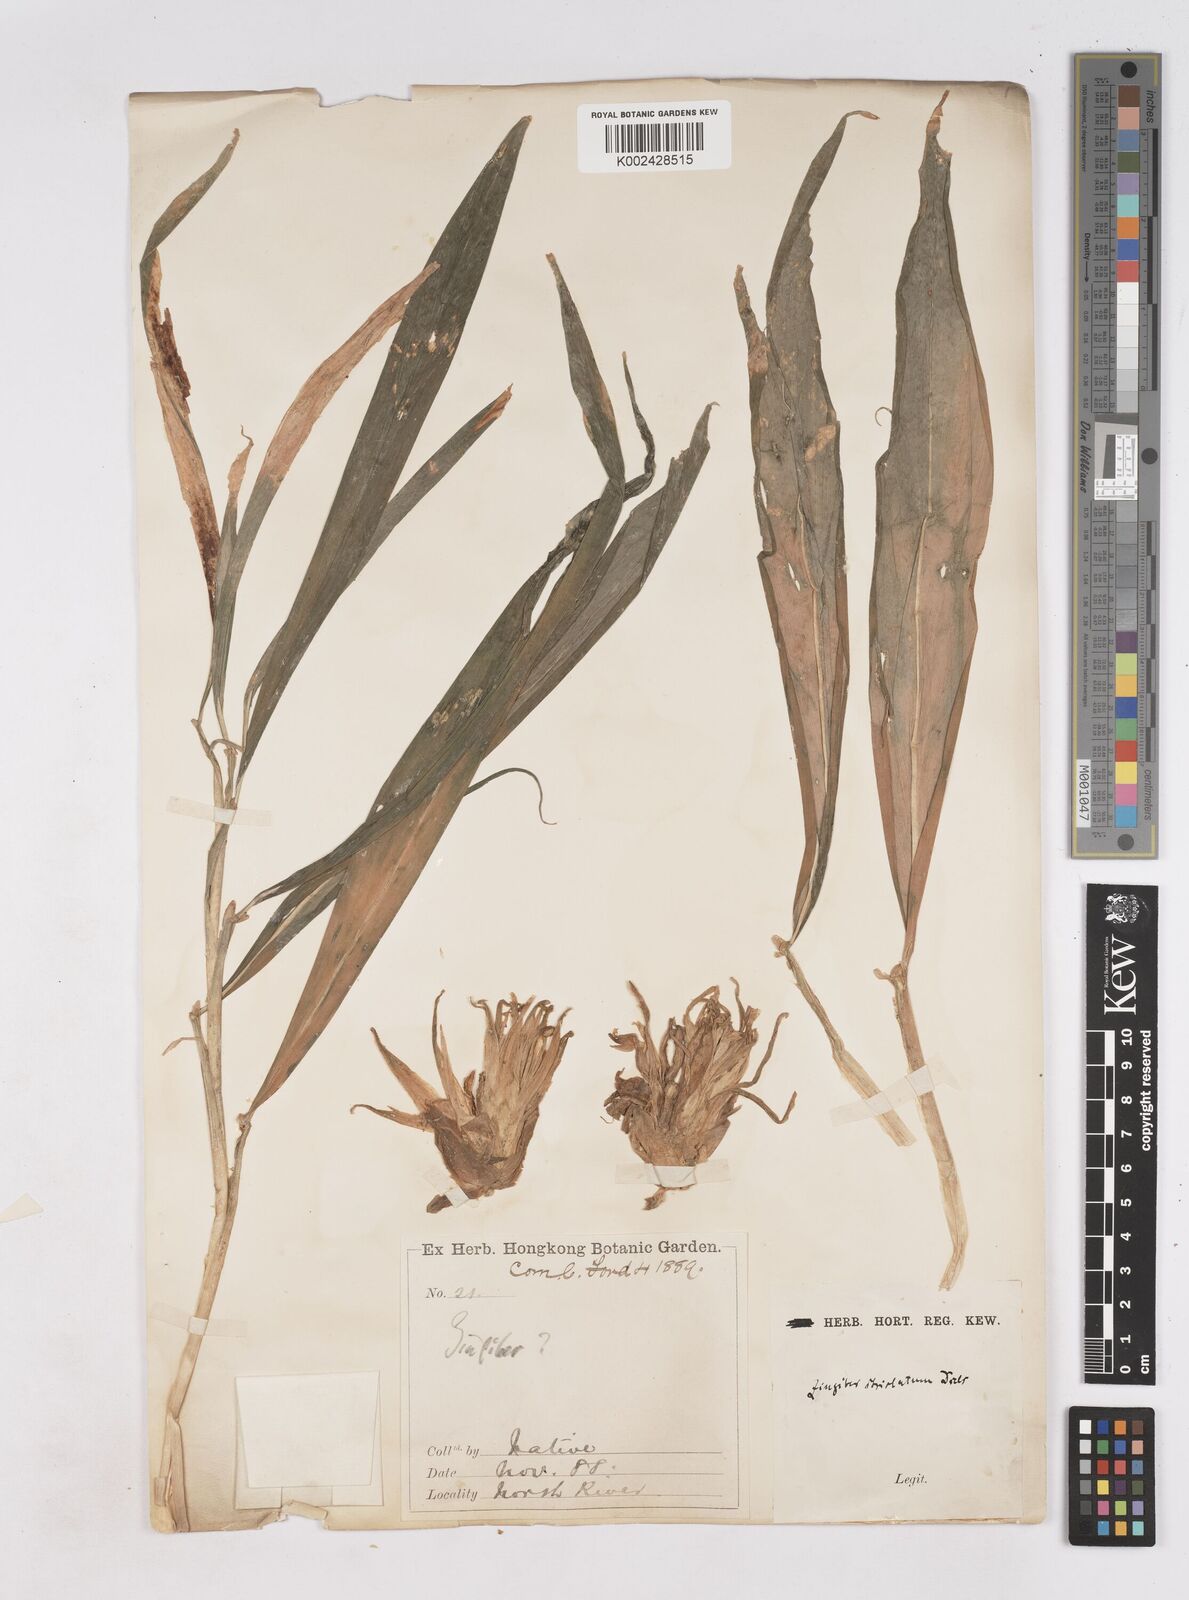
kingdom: Plantae
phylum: Tracheophyta
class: Liliopsida
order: Zingiberales
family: Zingiberaceae
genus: Zingiber
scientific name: Zingiber striolatum
